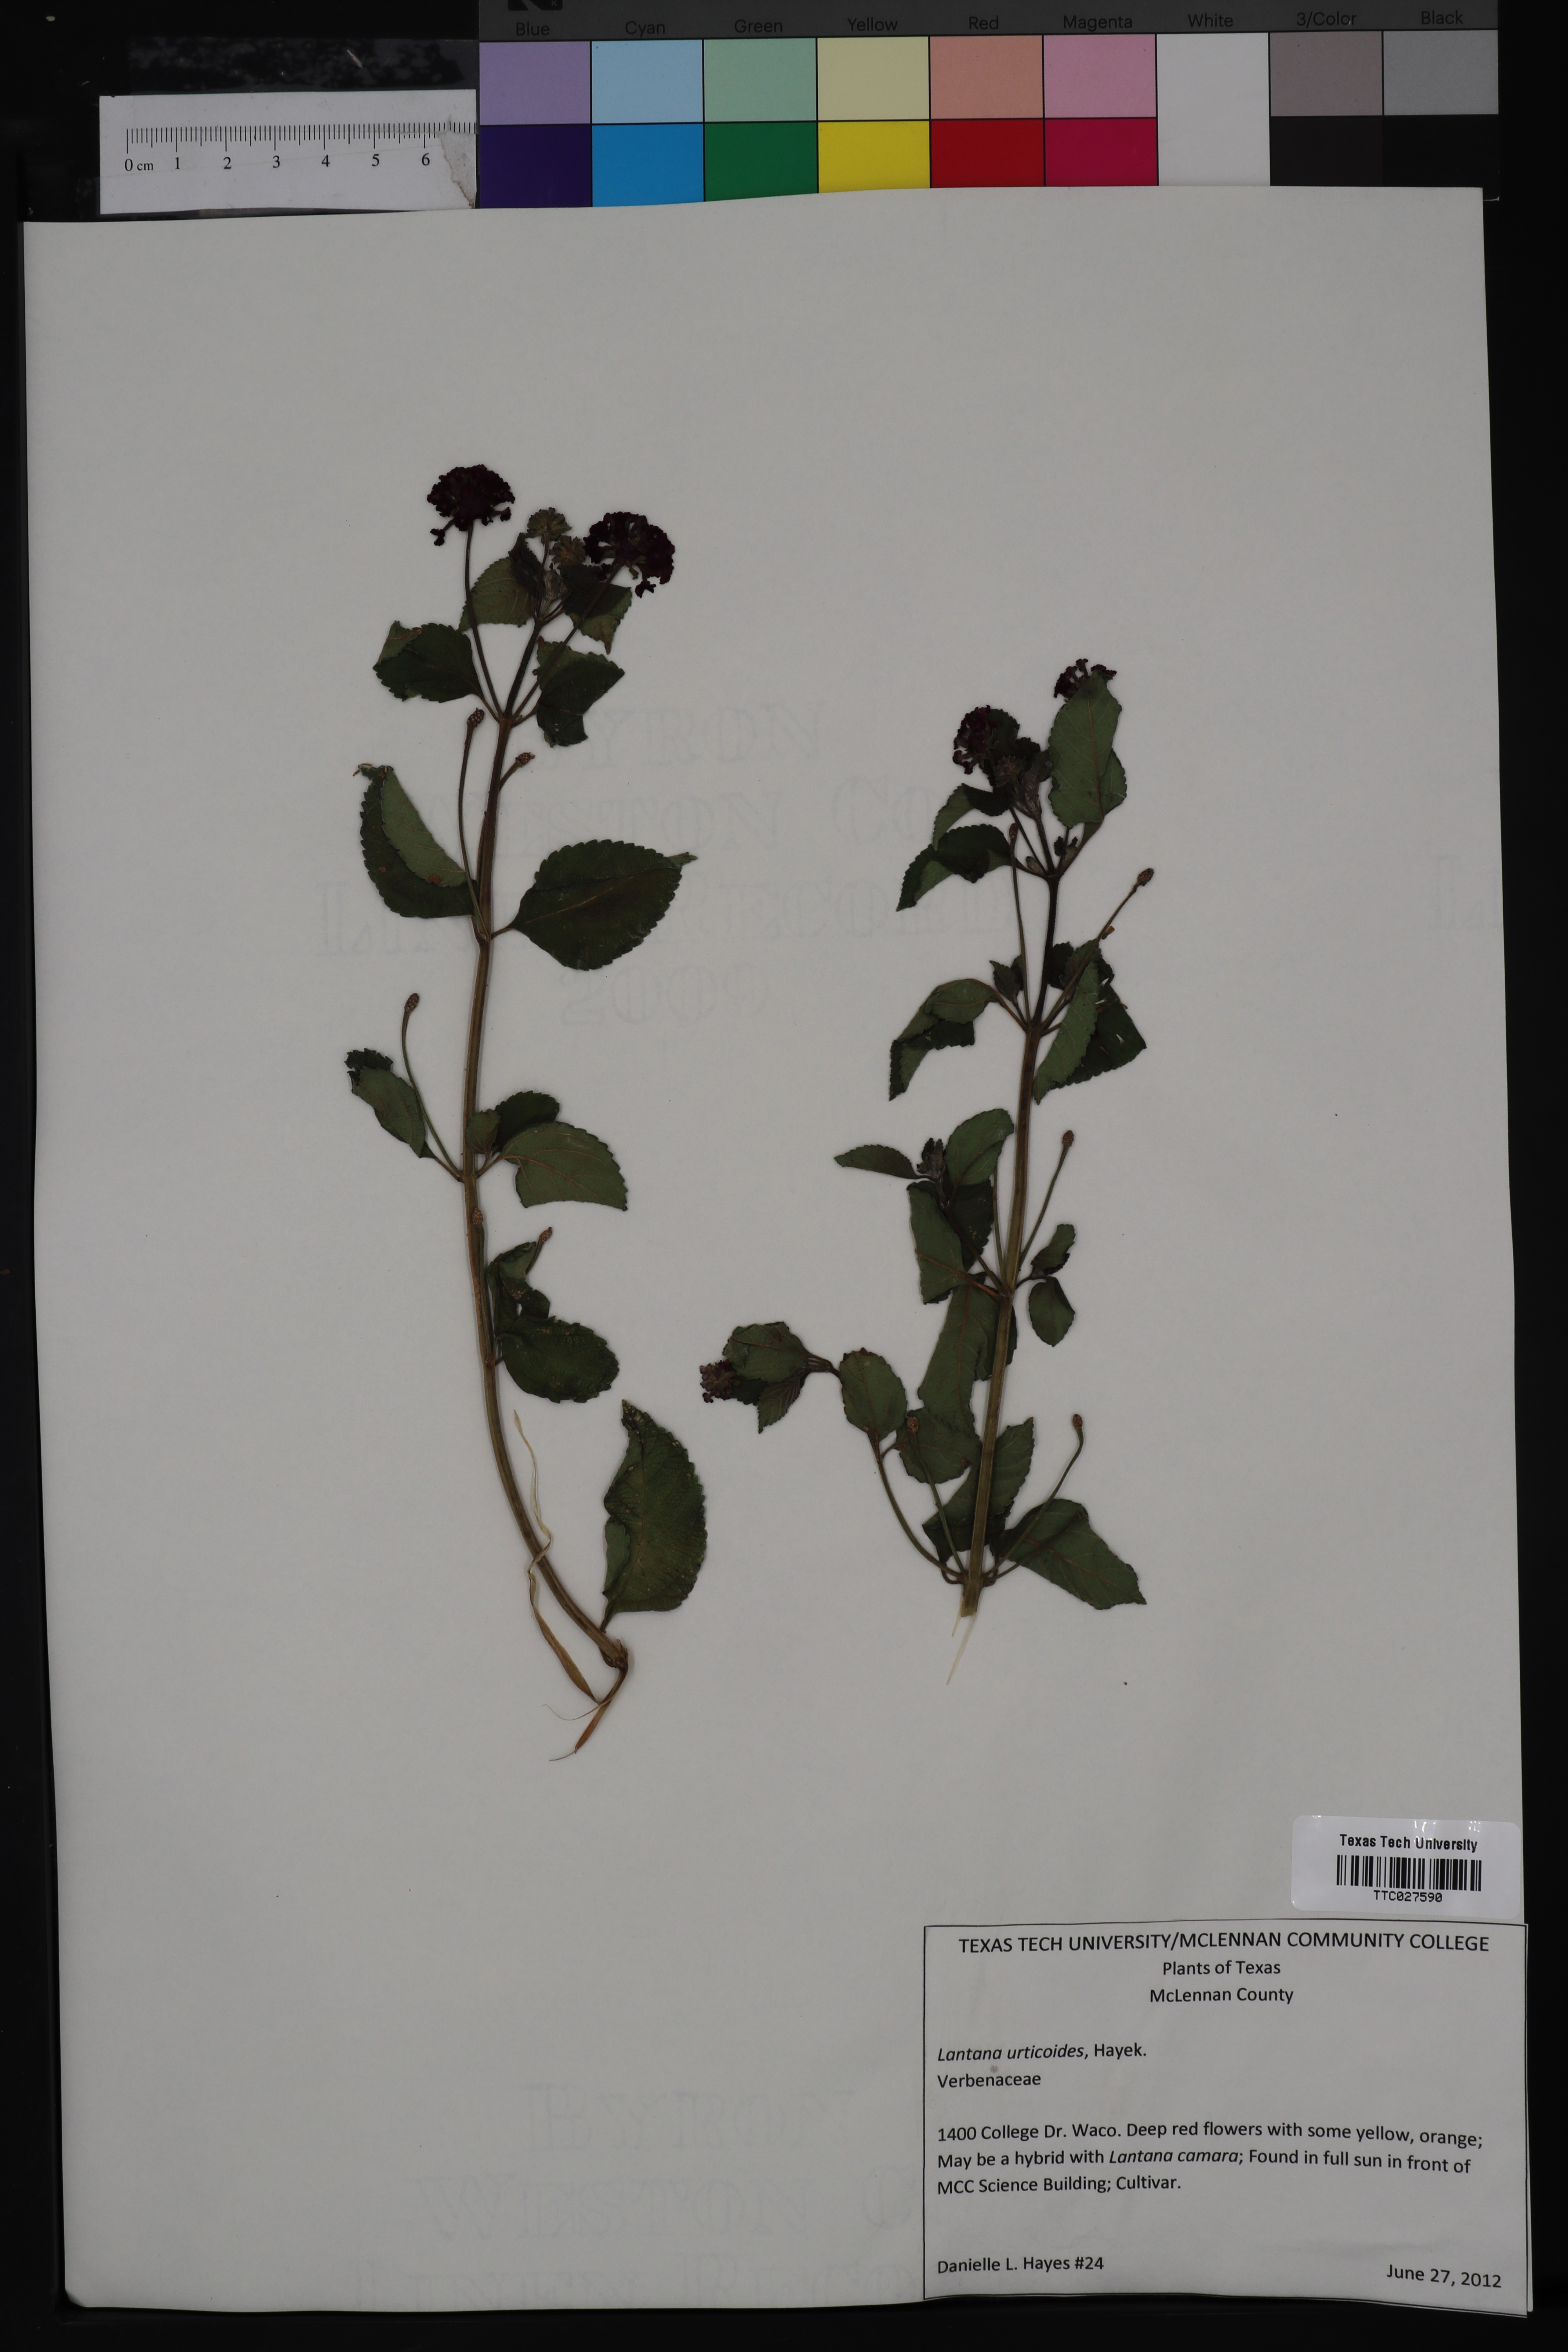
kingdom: Plantae
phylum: Tracheophyta
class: Magnoliopsida
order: Lamiales
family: Verbenaceae
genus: Lantana
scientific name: Lantana camara
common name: Lantana
